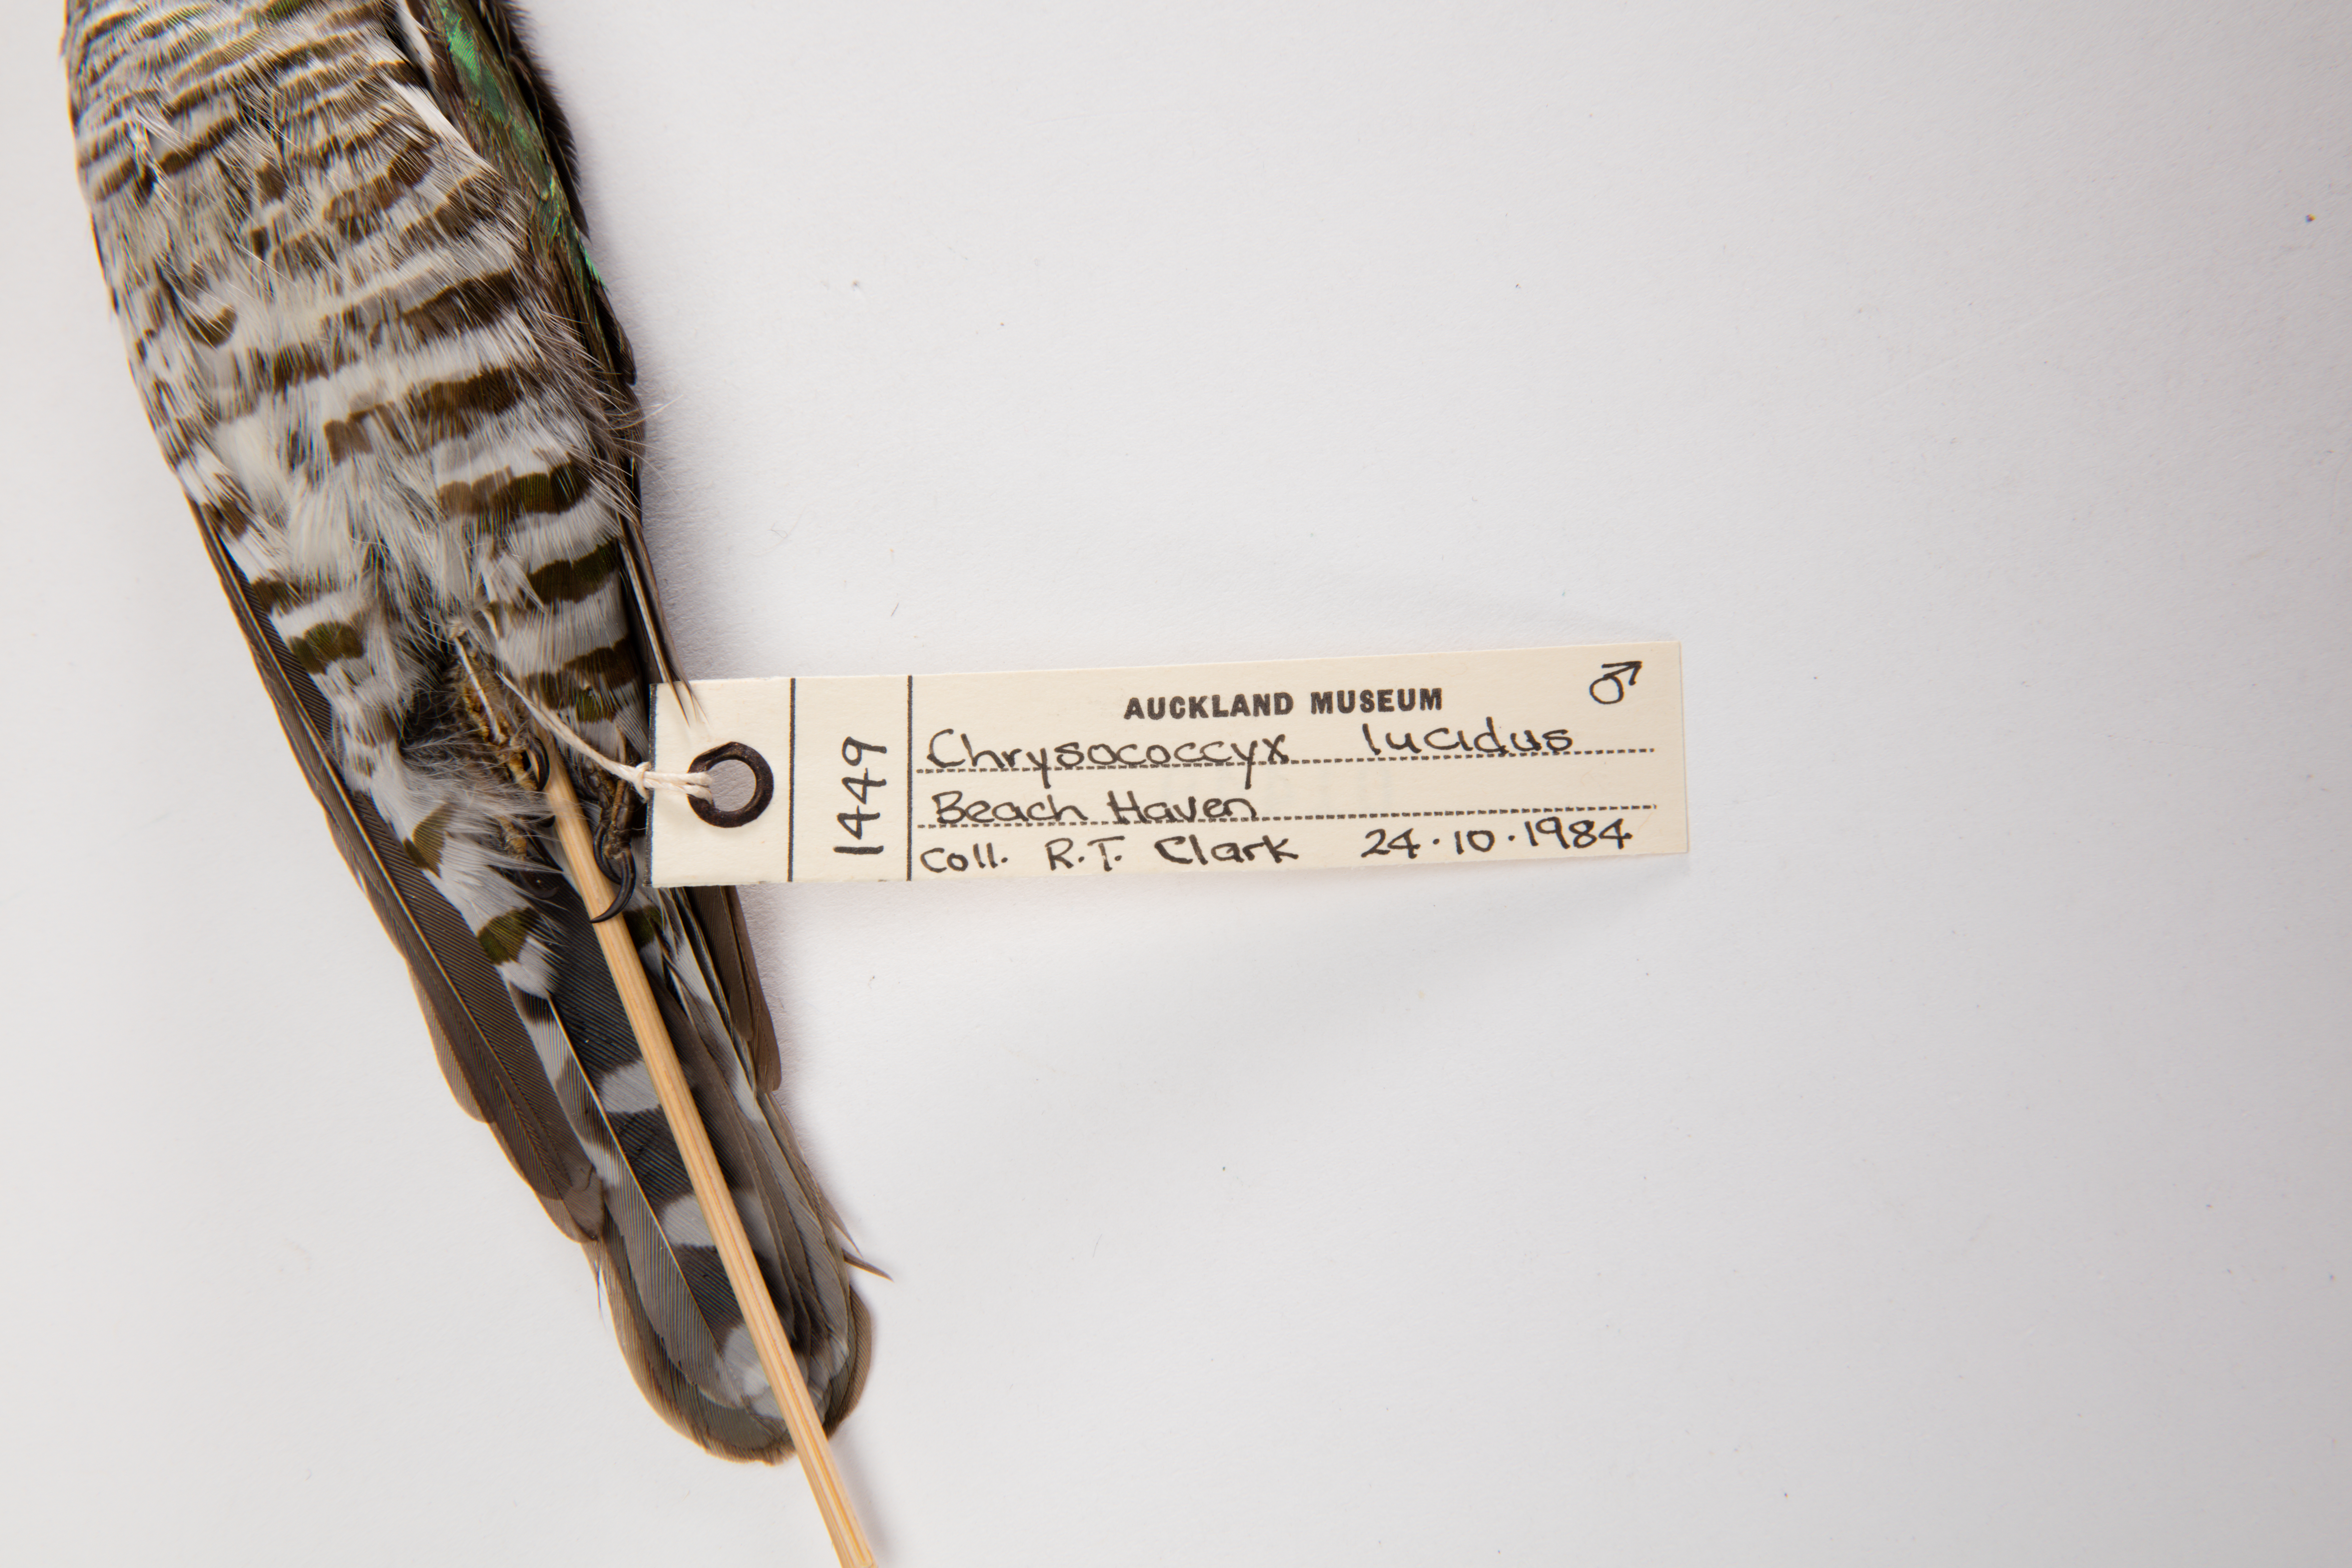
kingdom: Animalia
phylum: Chordata
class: Aves
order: Cuculiformes
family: Cuculidae
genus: Chrysococcyx
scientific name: Chrysococcyx lucidus
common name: Shining bronze cuckoo
